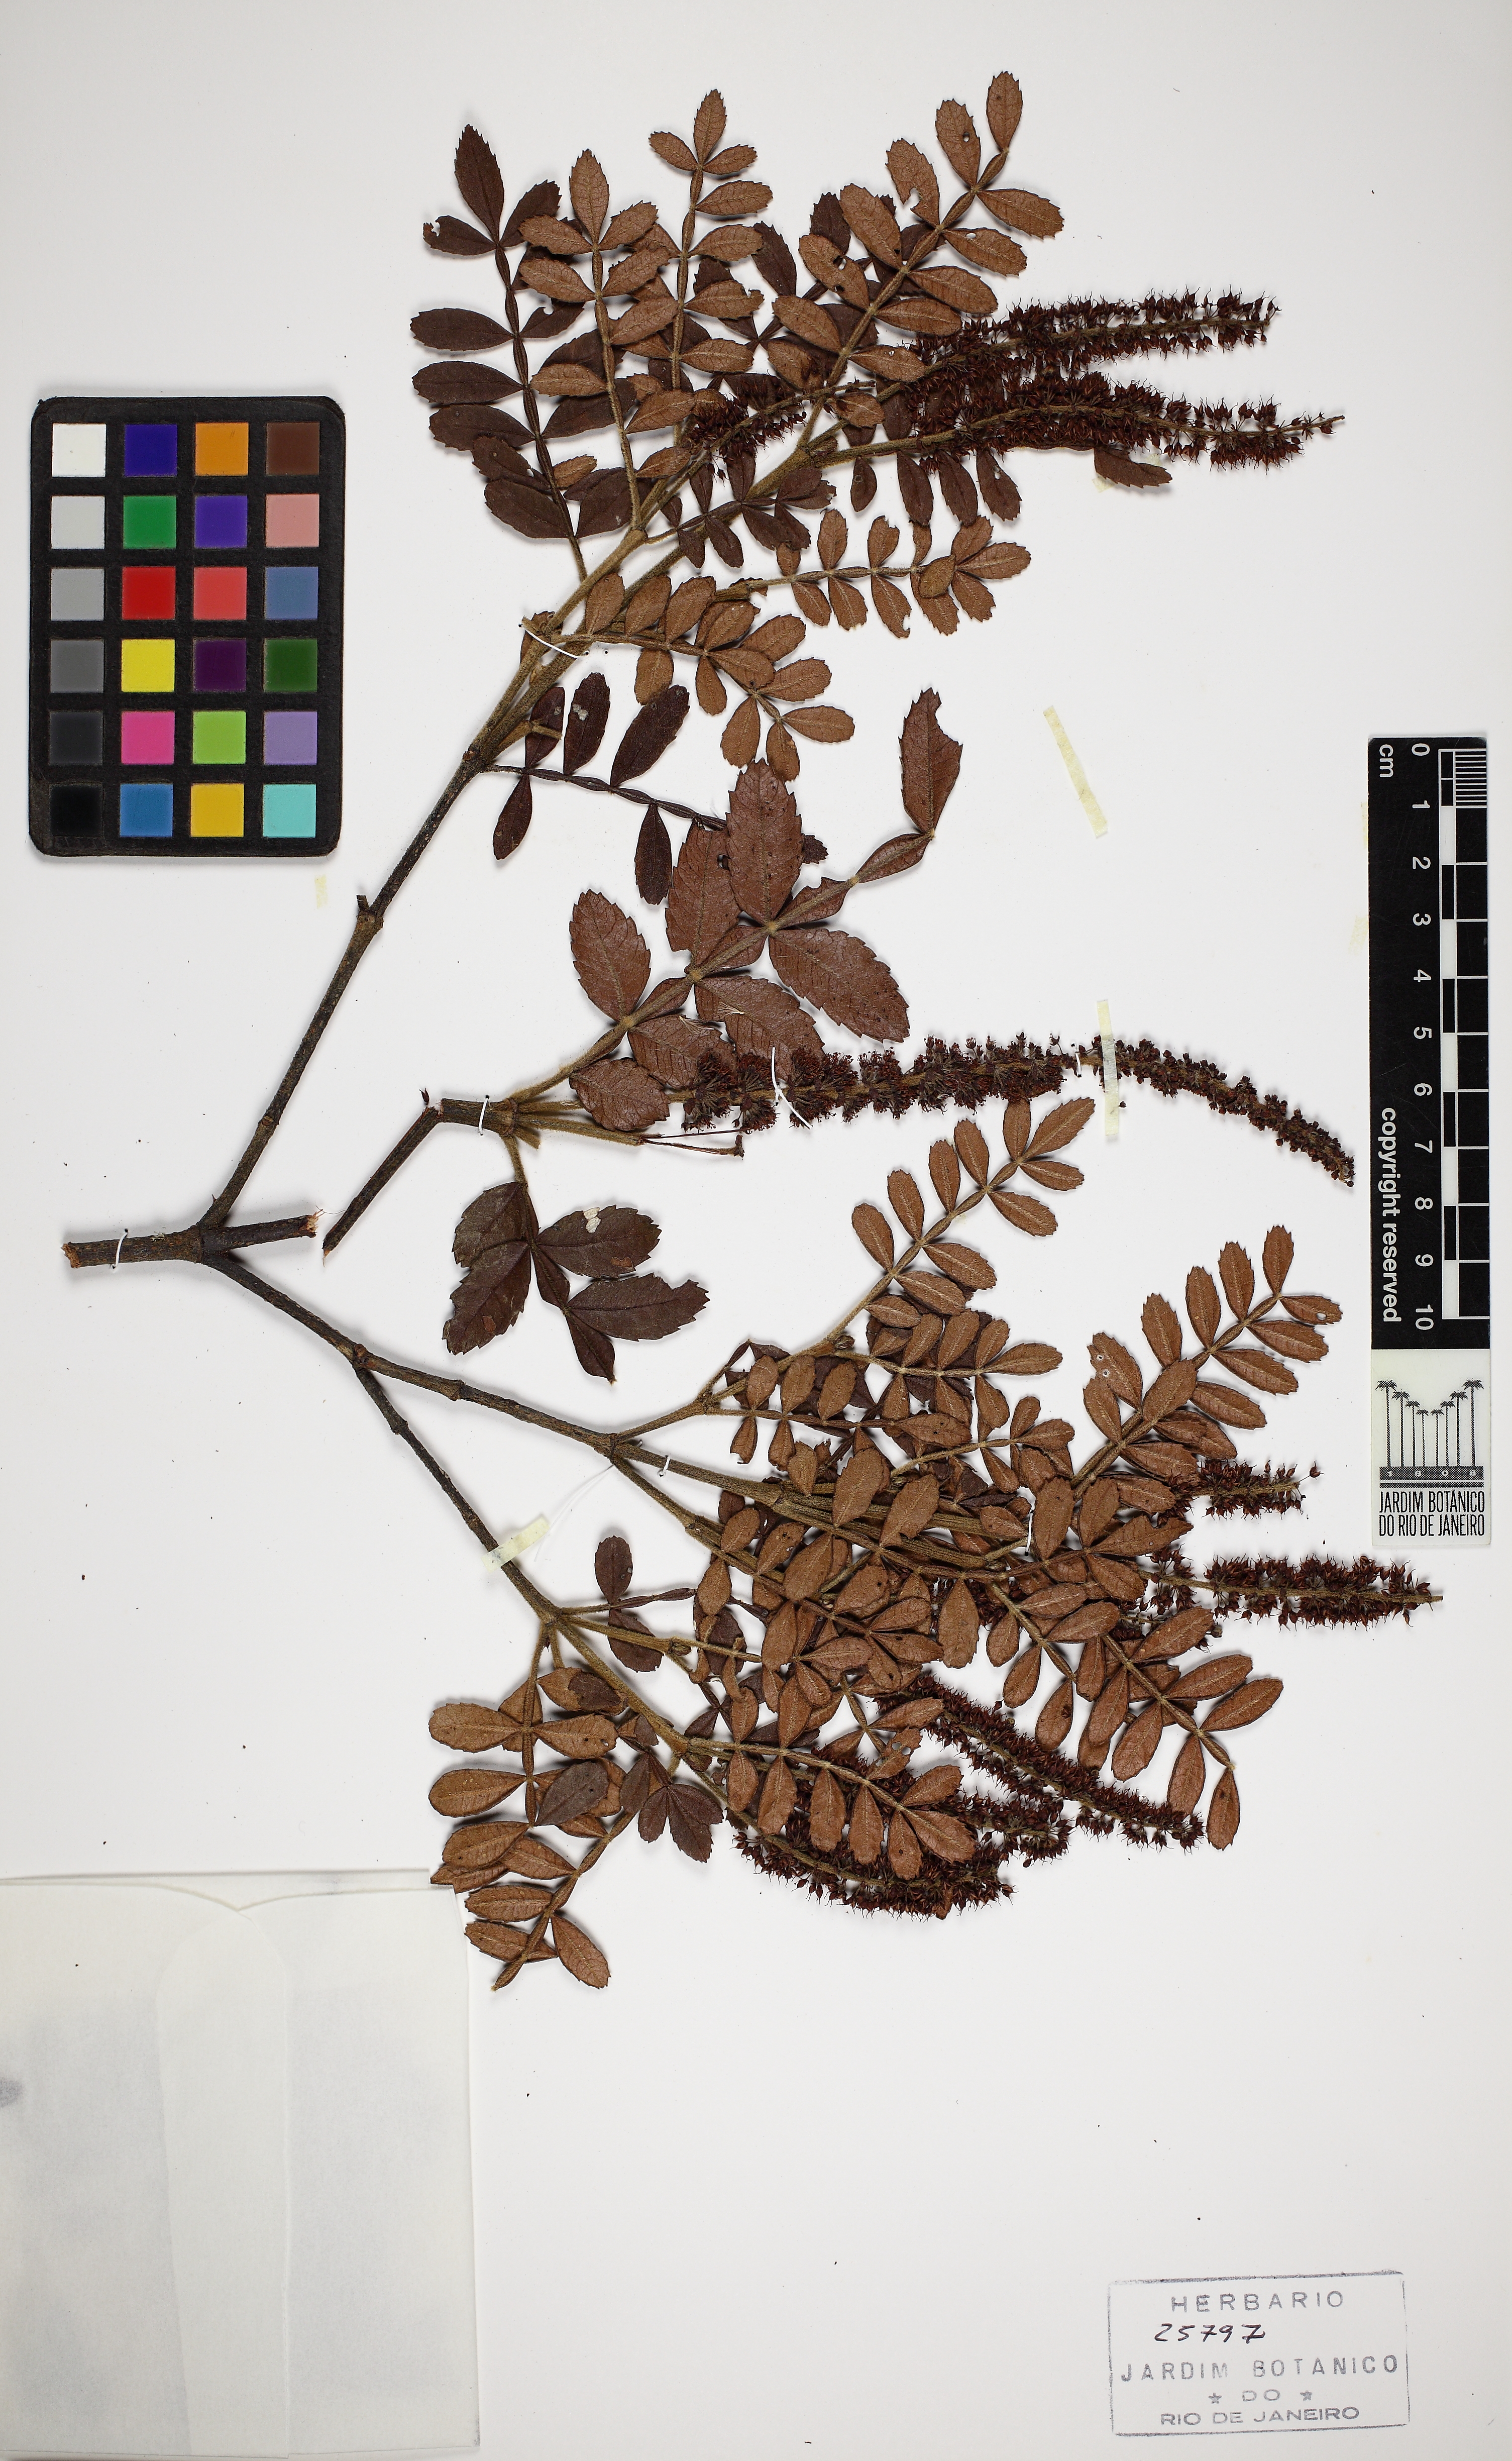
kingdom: Plantae
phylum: Tracheophyta
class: Magnoliopsida
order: Oxalidales
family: Cunoniaceae
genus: Weinmannia
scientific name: Weinmannia organensis
